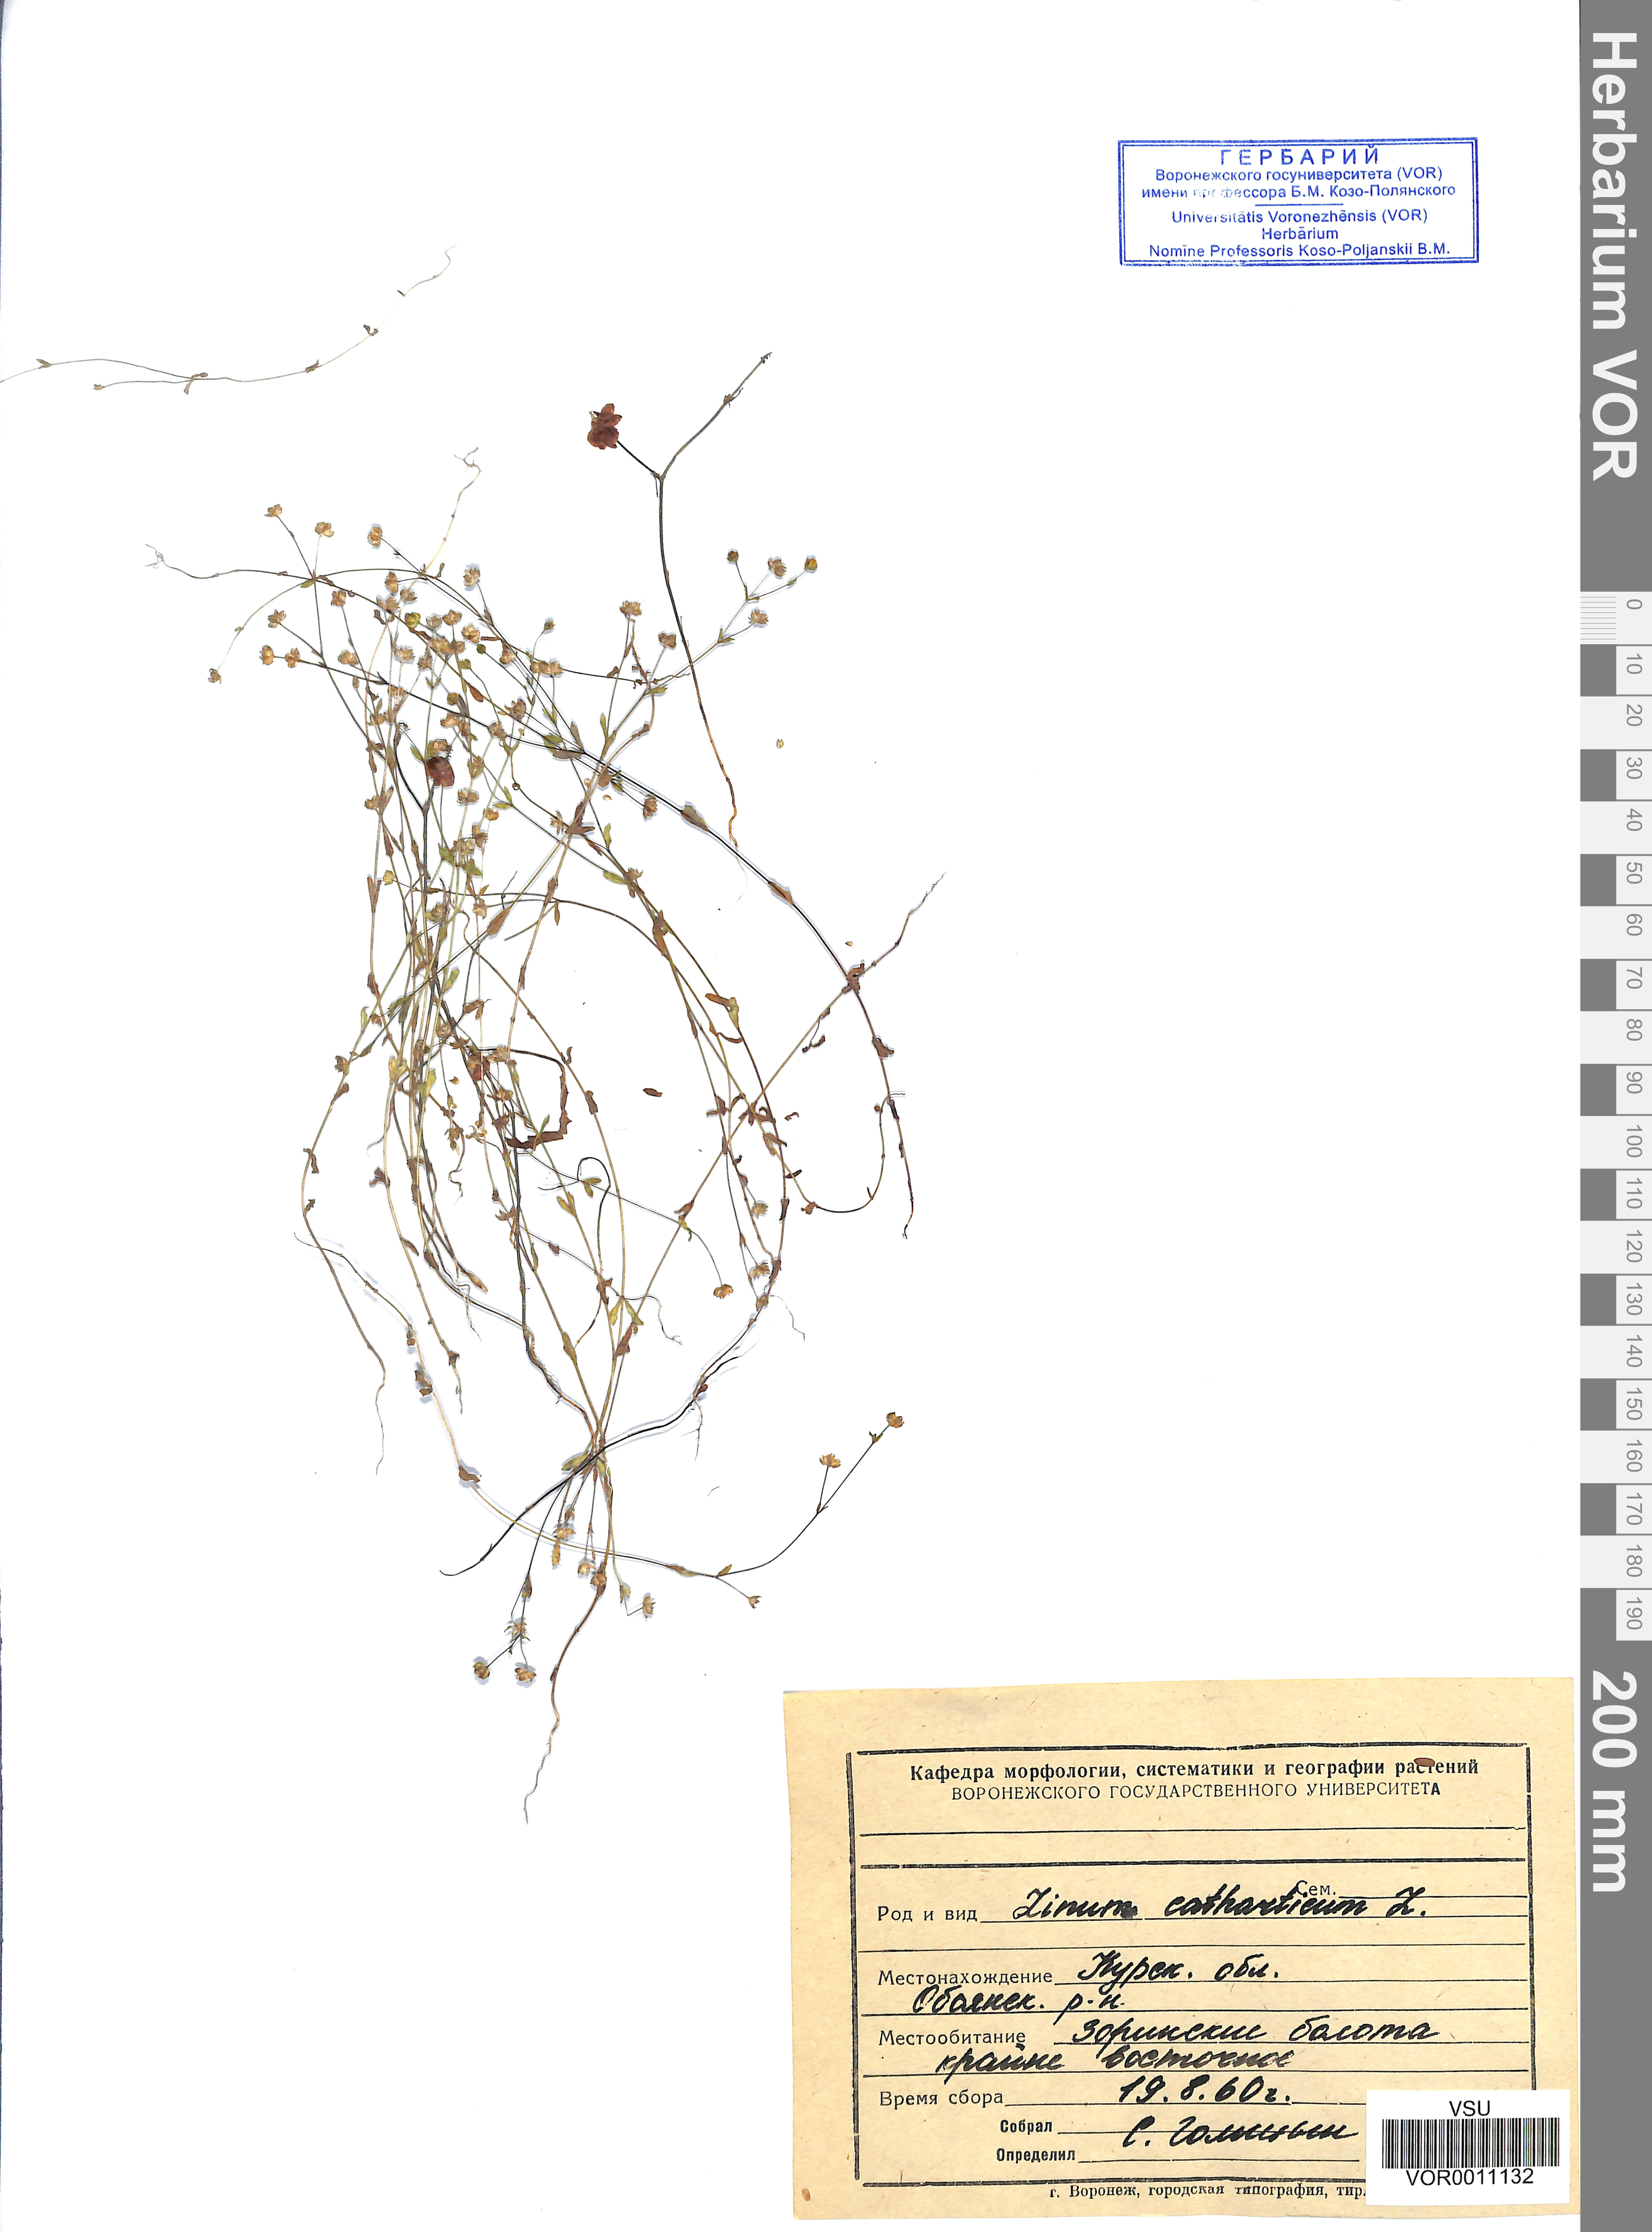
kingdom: Plantae
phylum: Tracheophyta
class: Magnoliopsida
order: Malpighiales
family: Linaceae
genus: Linum
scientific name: Linum catharticum
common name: Fairy flax
